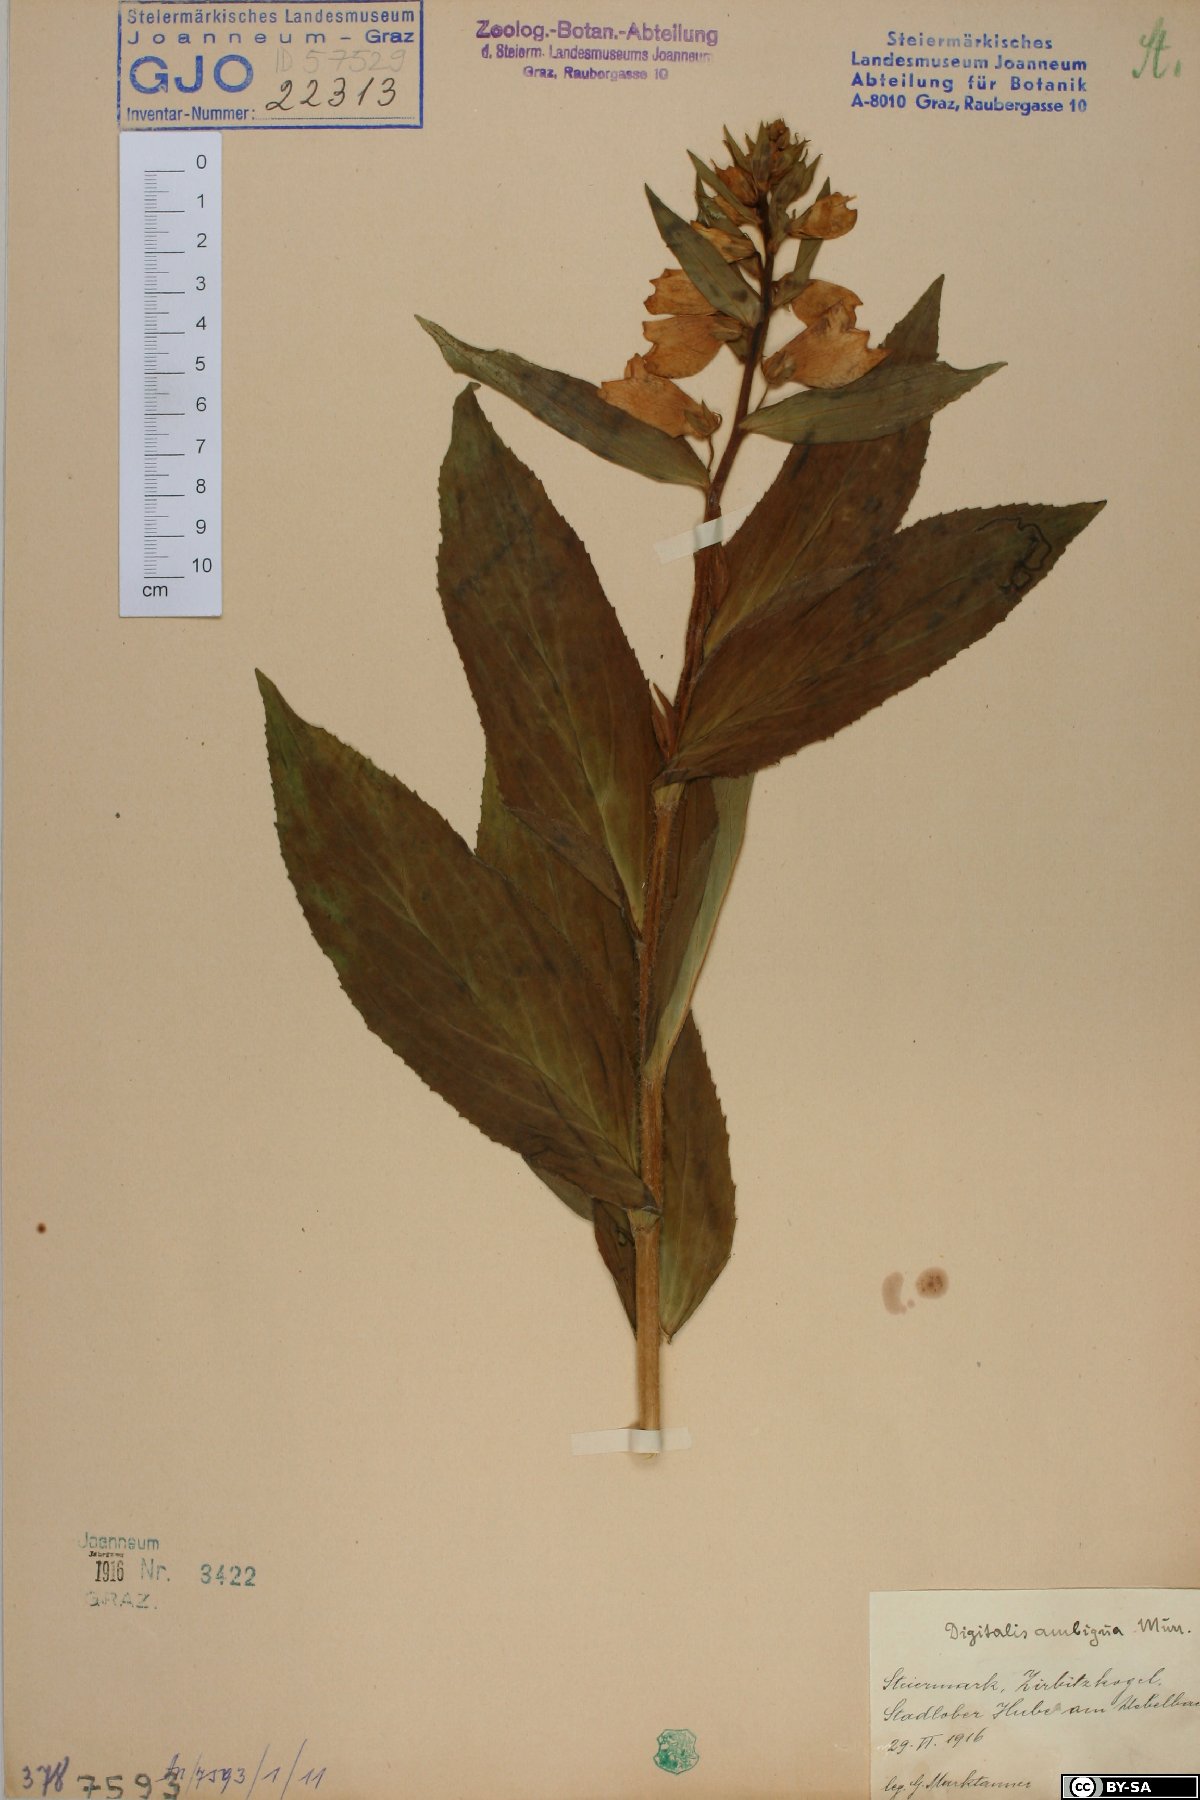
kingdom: Plantae
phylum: Tracheophyta
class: Magnoliopsida
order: Lamiales
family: Plantaginaceae
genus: Digitalis
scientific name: Digitalis grandiflora
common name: Yellow foxglove
